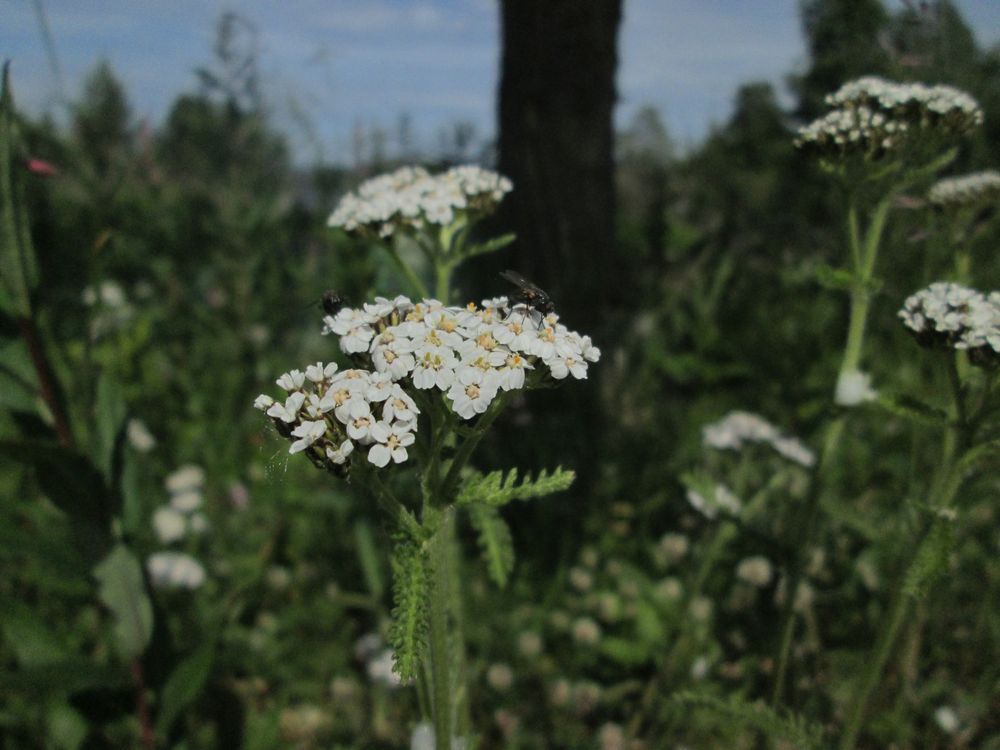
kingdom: Plantae
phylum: Tracheophyta
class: Magnoliopsida
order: Asterales
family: Asteraceae
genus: Achillea
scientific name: Achillea millefolium
